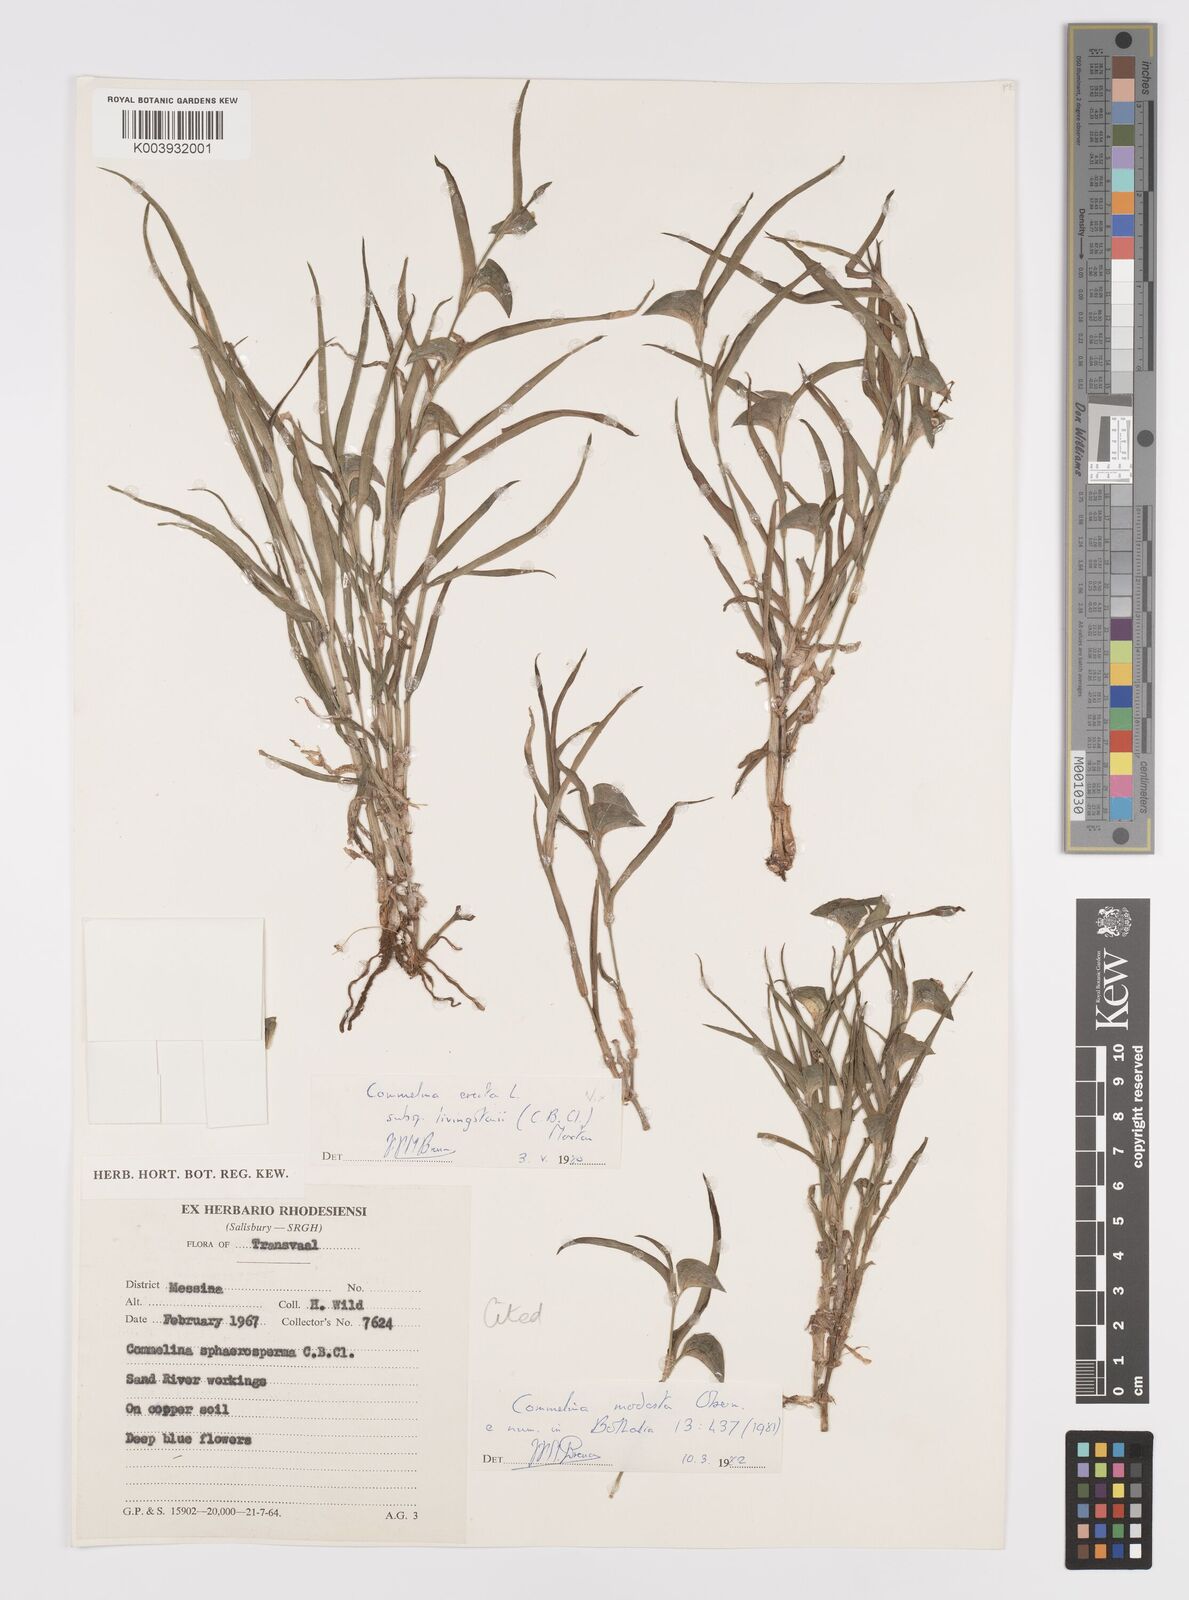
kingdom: Plantae
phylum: Tracheophyta
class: Liliopsida
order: Commelinales
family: Commelinaceae
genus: Commelina
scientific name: Commelina modesta
